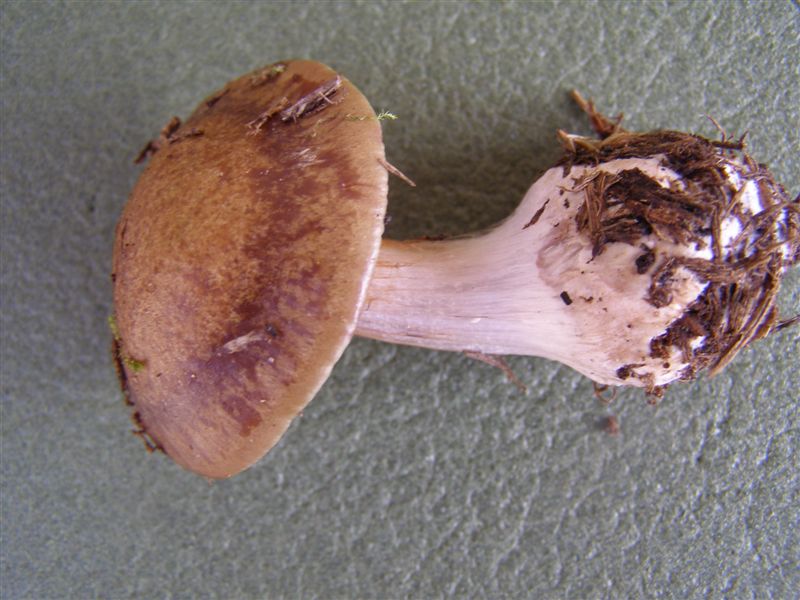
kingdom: Fungi
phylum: Basidiomycota
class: Agaricomycetes
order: Agaricales
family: Cortinariaceae
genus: Thaxterogaster
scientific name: Thaxterogaster sphagnophilus
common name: vandplettet slørhat
